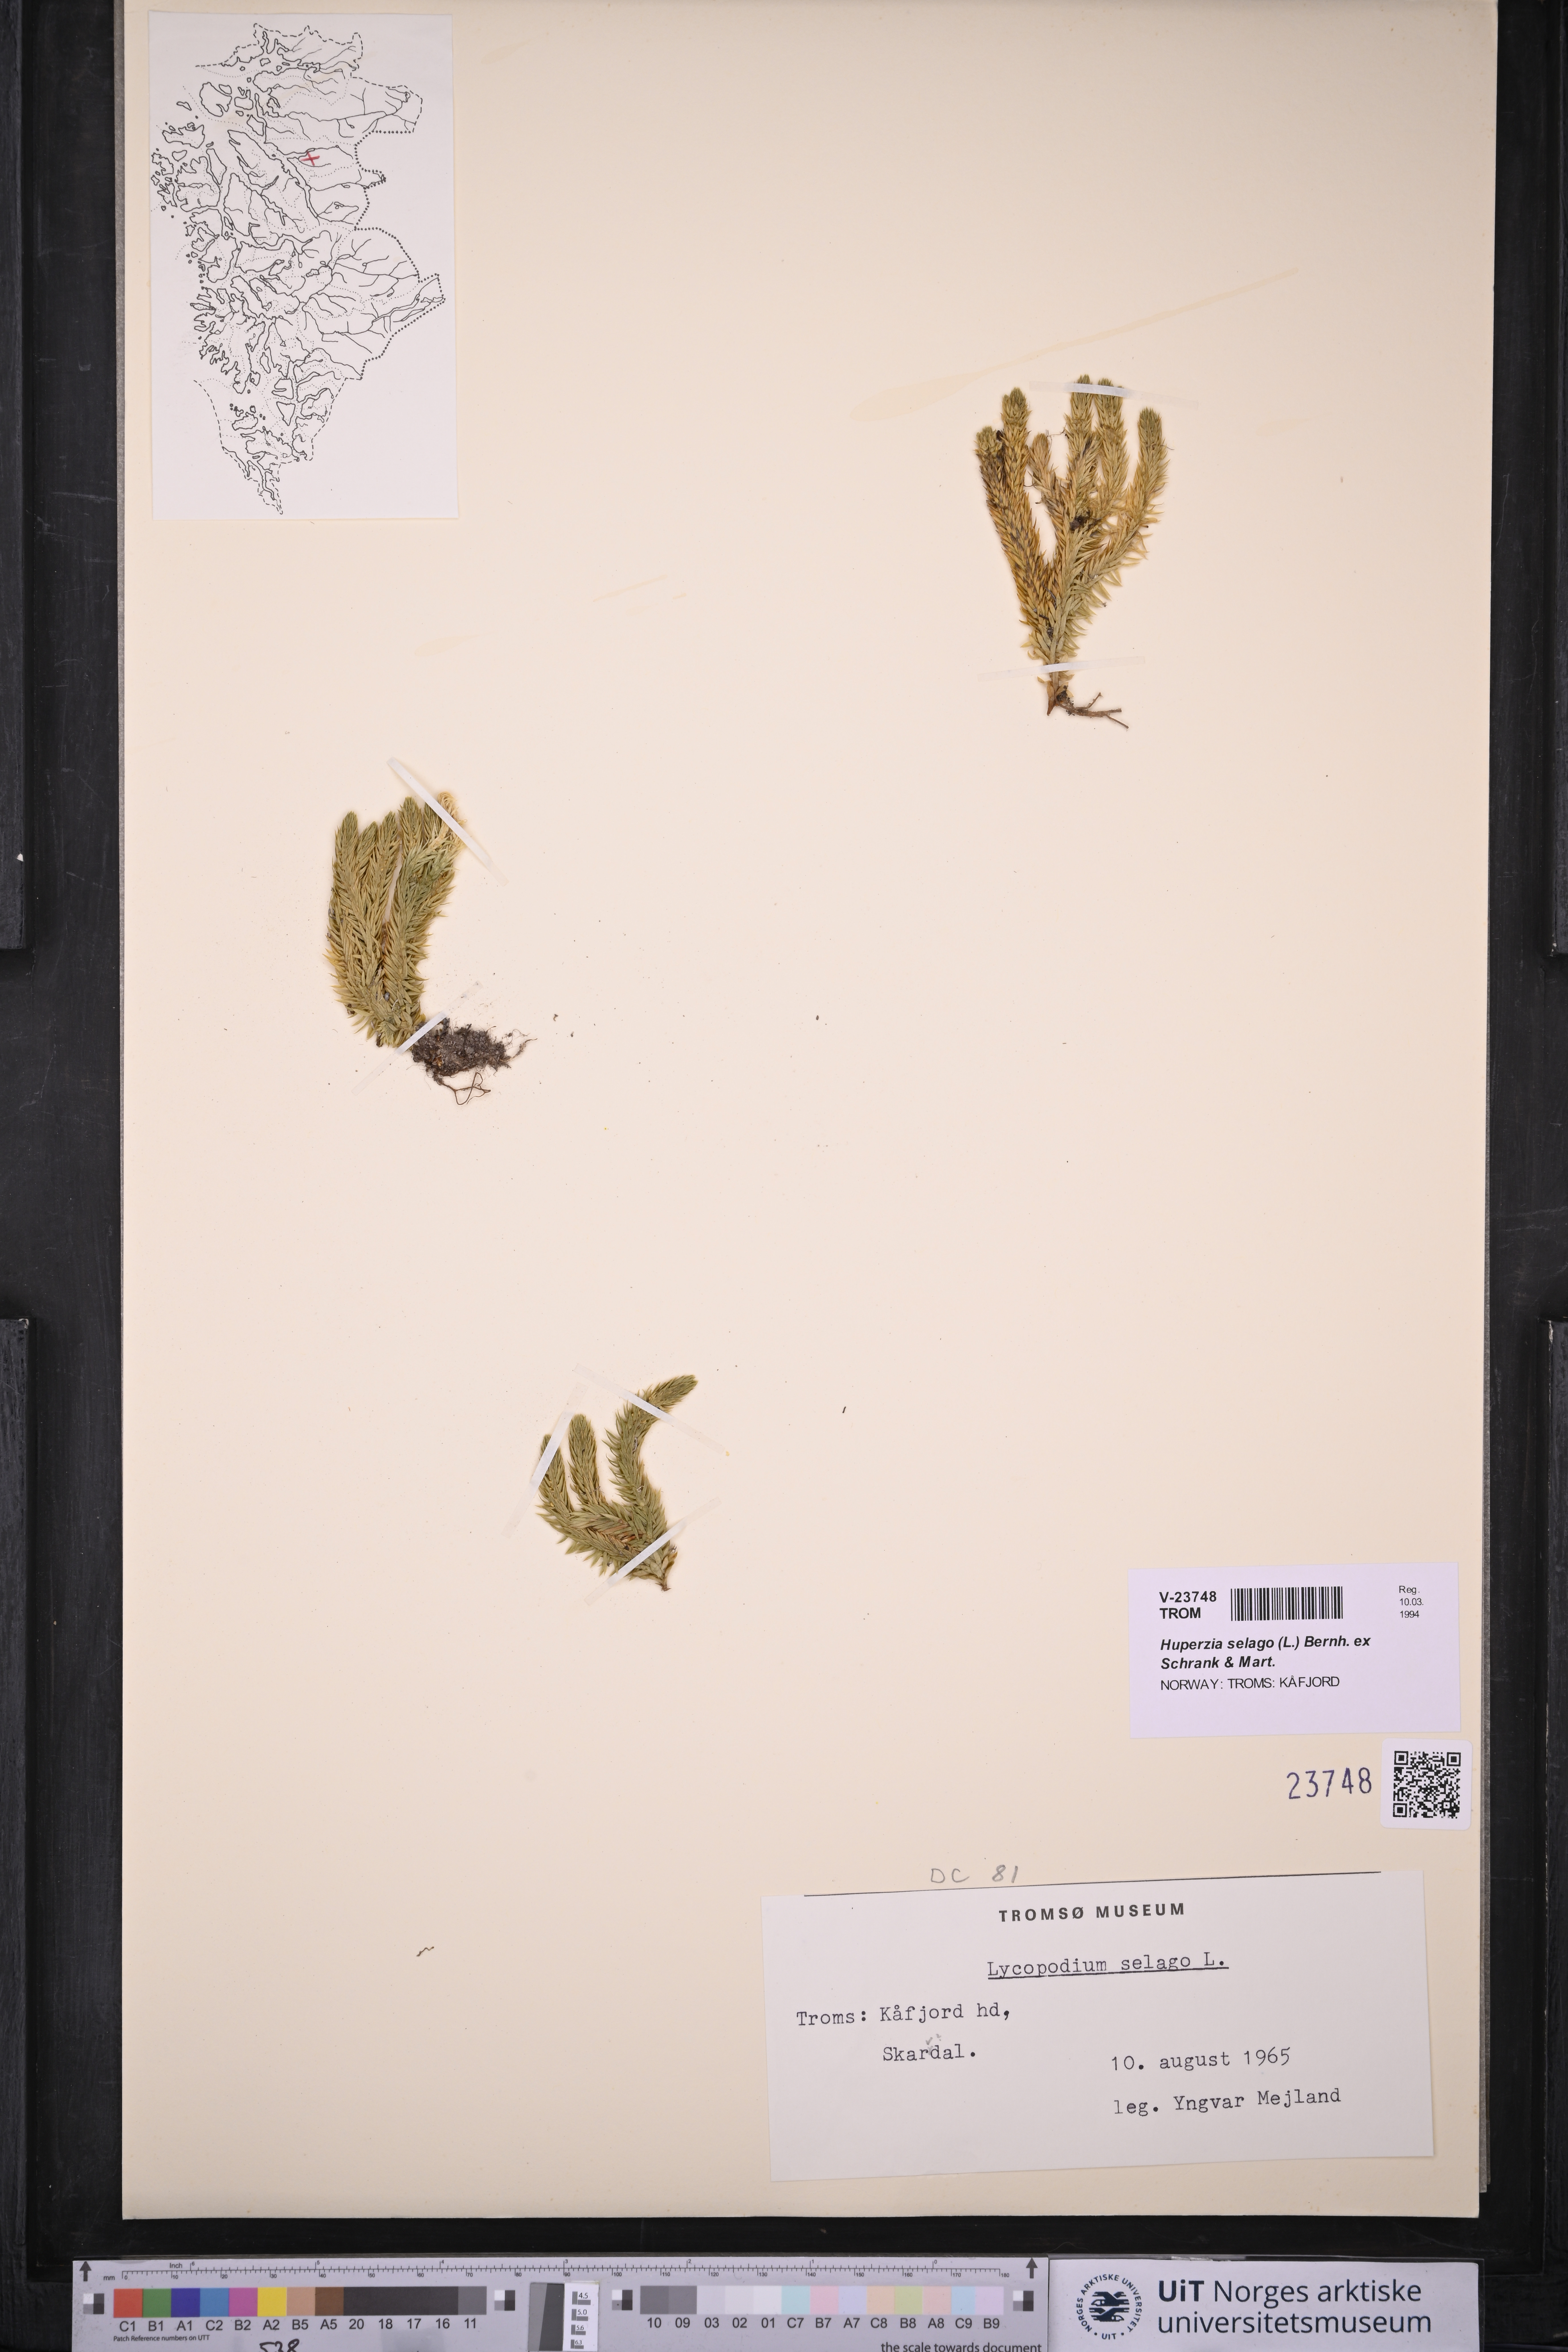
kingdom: Plantae
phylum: Tracheophyta
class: Lycopodiopsida
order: Lycopodiales
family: Lycopodiaceae
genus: Huperzia
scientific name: Huperzia selago
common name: Northern firmoss
